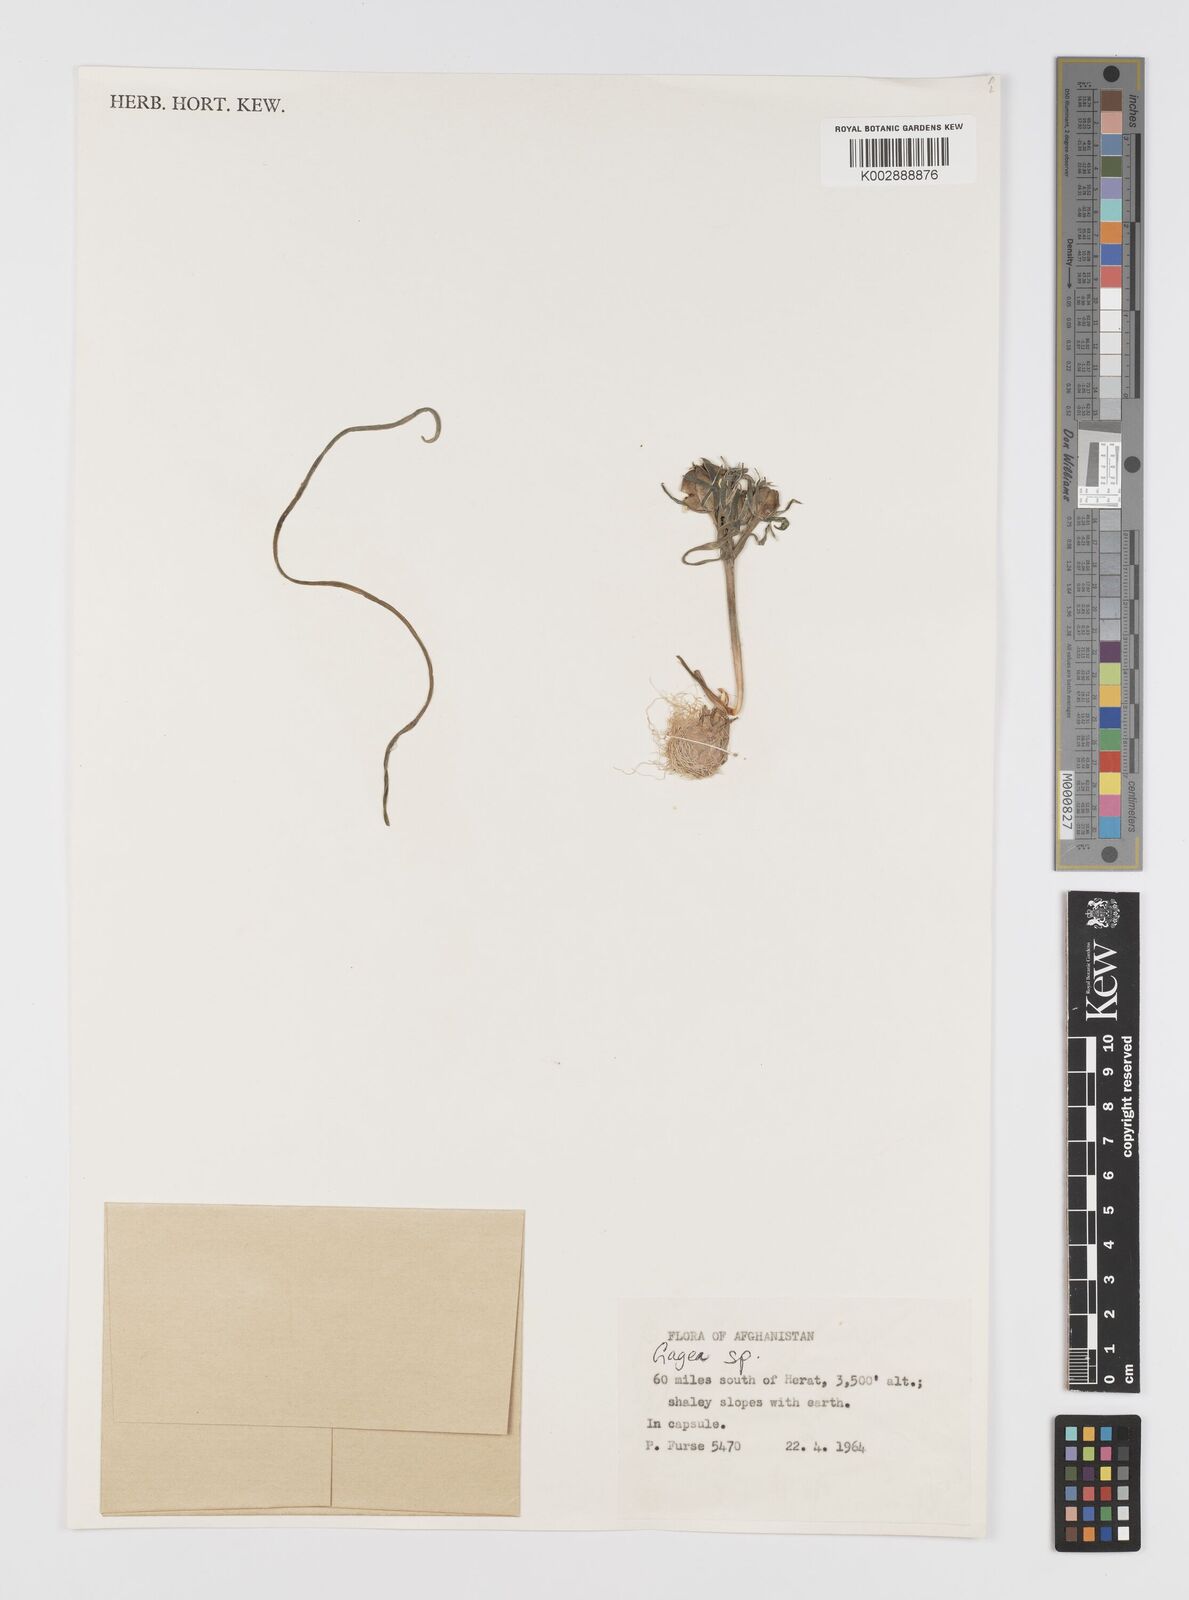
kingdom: Plantae
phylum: Tracheophyta
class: Liliopsida
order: Liliales
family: Liliaceae
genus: Gagea
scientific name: Gagea
